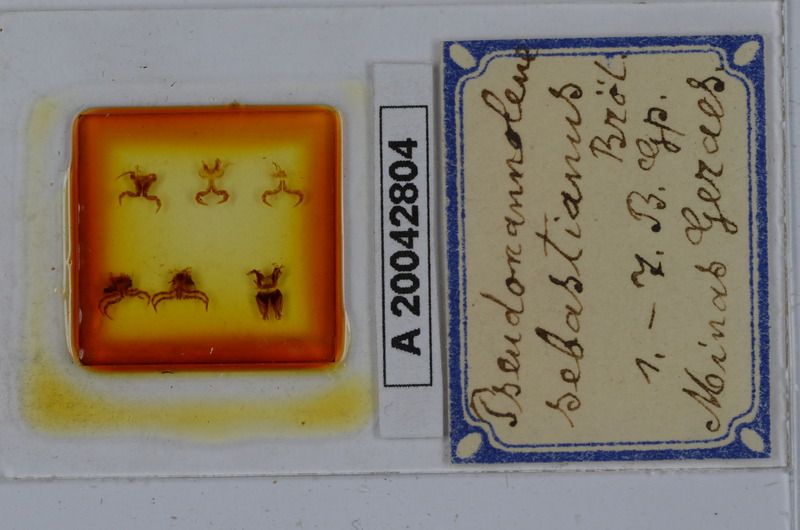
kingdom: Animalia
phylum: Arthropoda
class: Diplopoda
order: Spirostreptida
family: Pseudonannolenidae
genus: Pseudonannolene
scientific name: Pseudonannolene sebastianus
